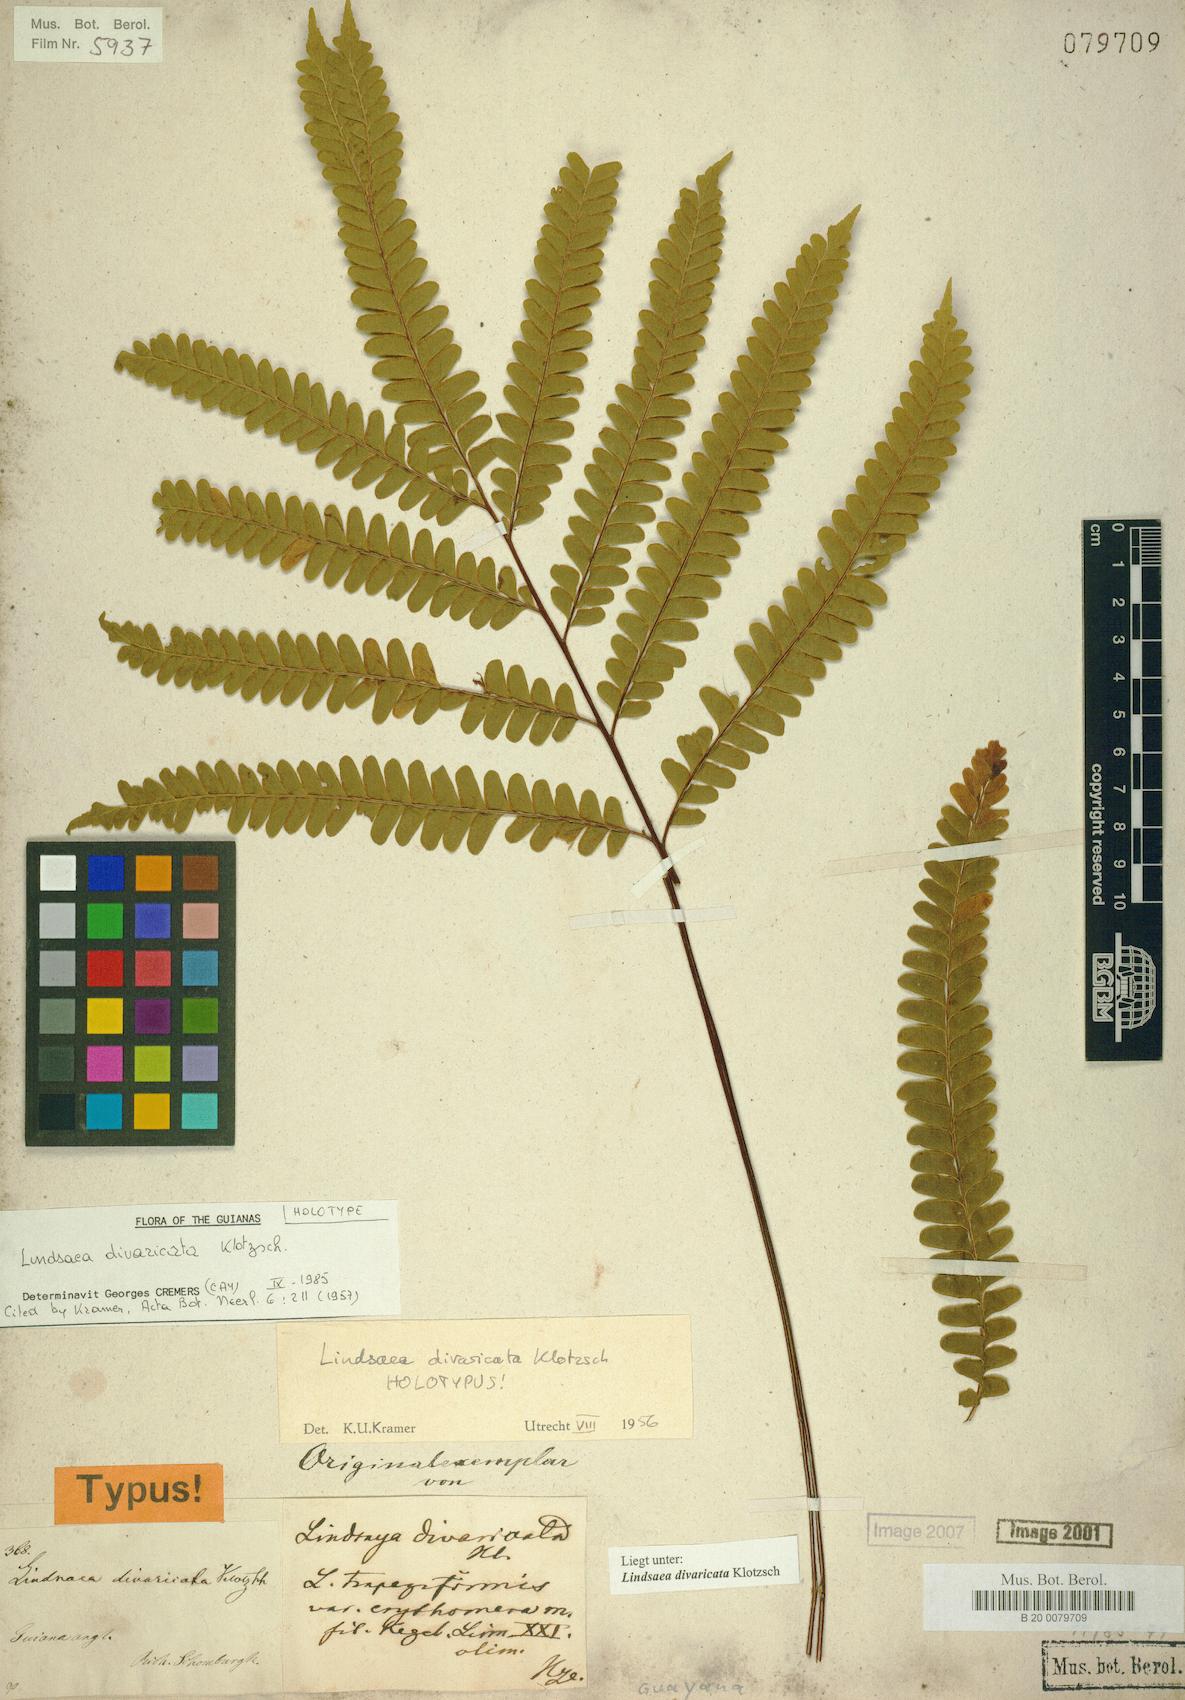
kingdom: Plantae
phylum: Tracheophyta
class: Polypodiopsida
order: Polypodiales
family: Lindsaeaceae
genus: Lindsaea
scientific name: Lindsaea divaricata
